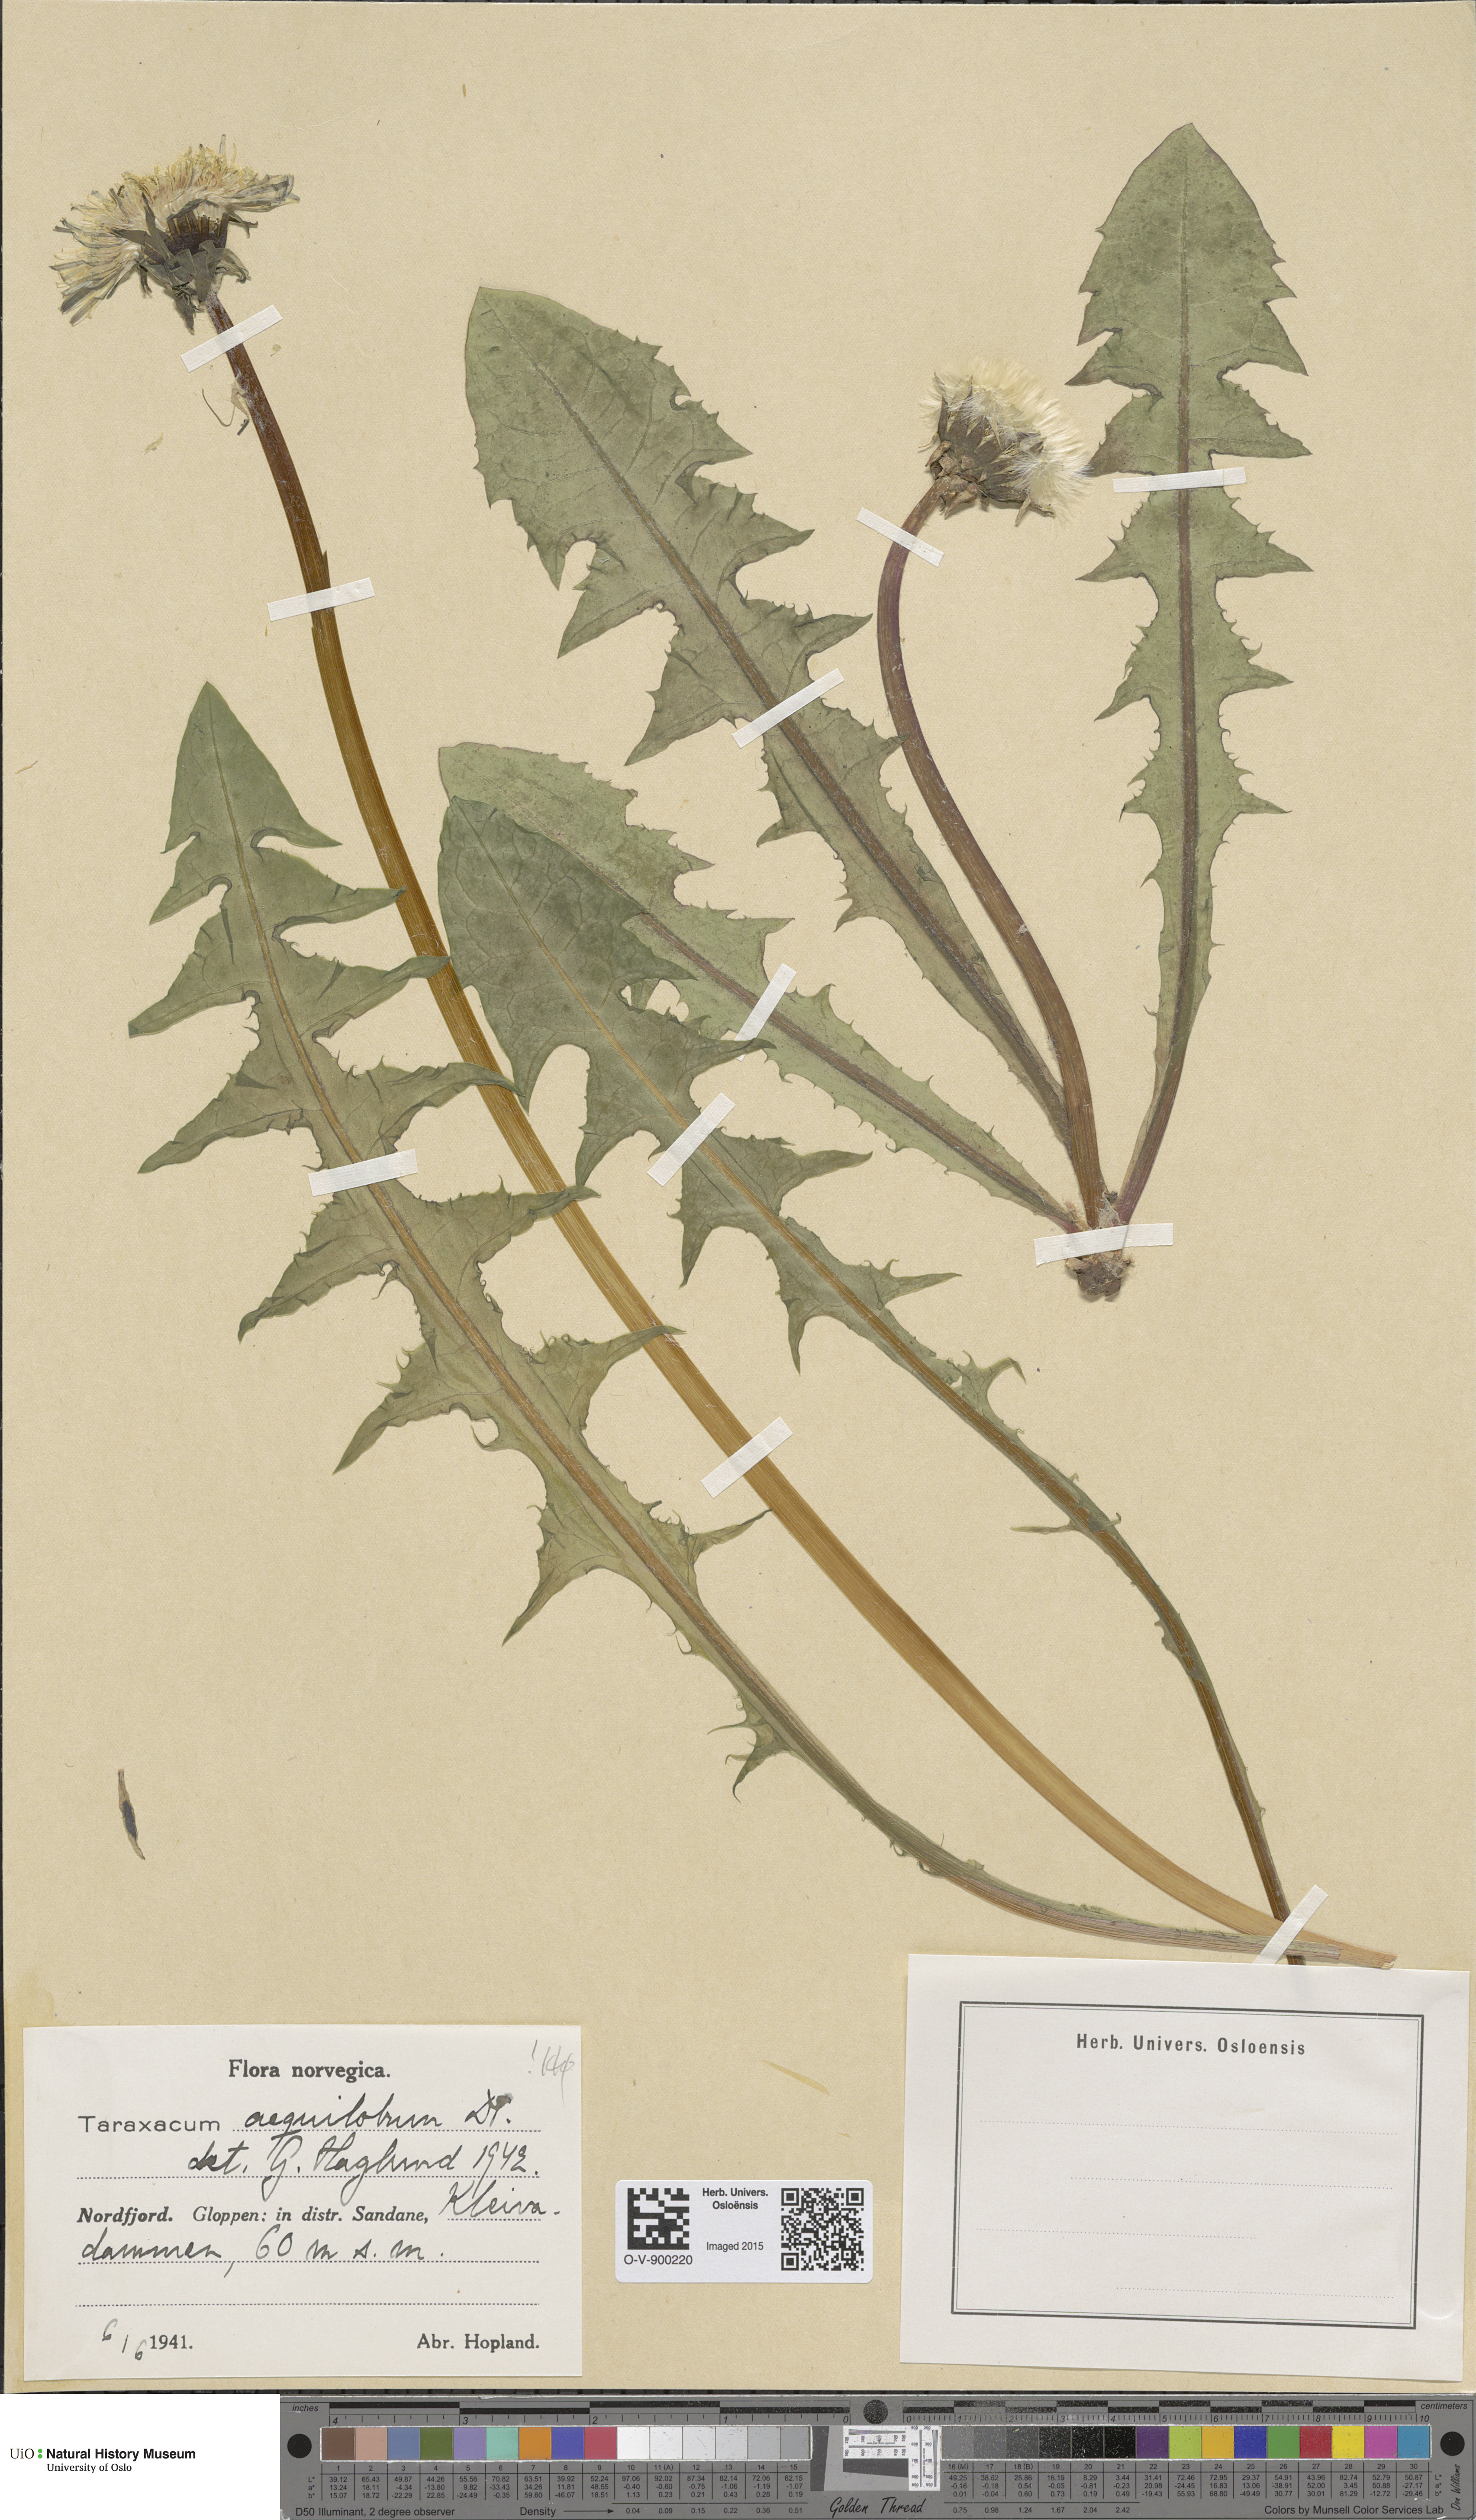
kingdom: Plantae
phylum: Tracheophyta
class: Magnoliopsida
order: Asterales
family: Asteraceae
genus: Taraxacum
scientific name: Taraxacum aequilobum
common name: Twisted-bracted dandelion
